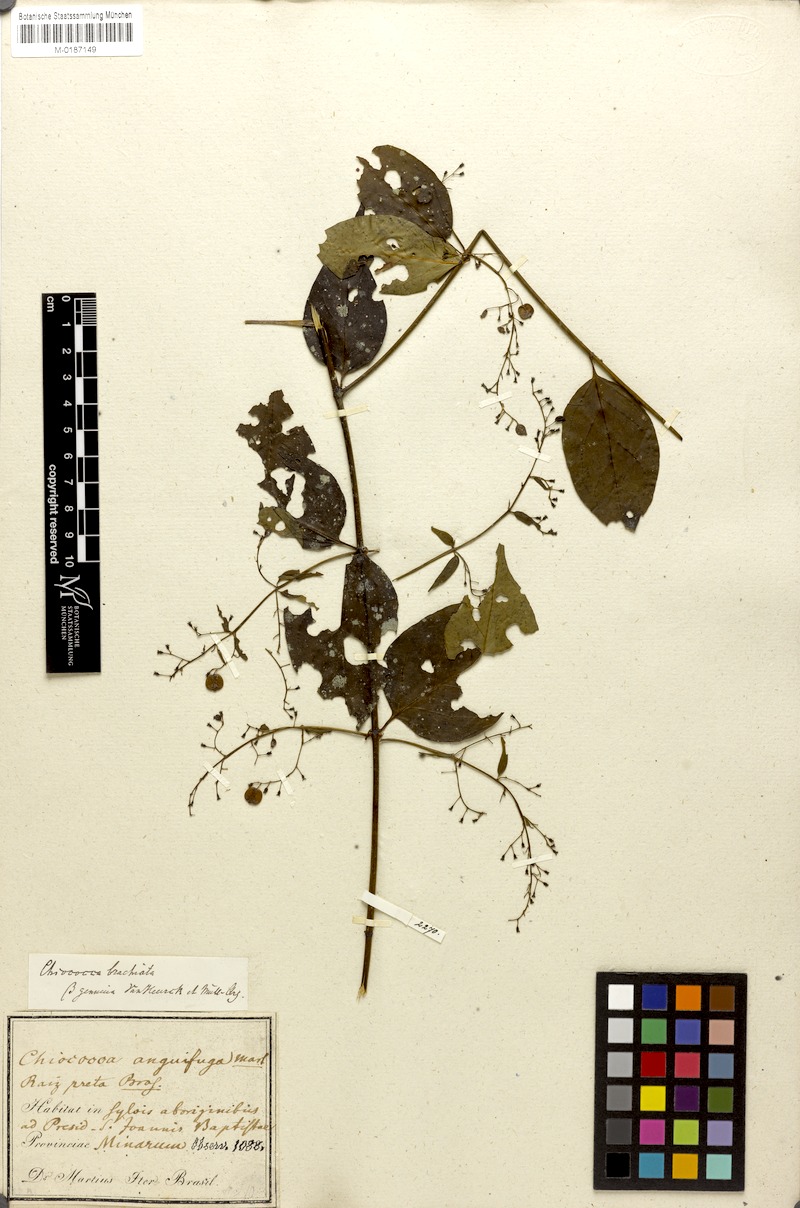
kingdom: Plantae
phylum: Tracheophyta
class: Magnoliopsida
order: Gentianales
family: Rubiaceae
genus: Chiococca
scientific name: Chiococca alba
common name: Snowberry
